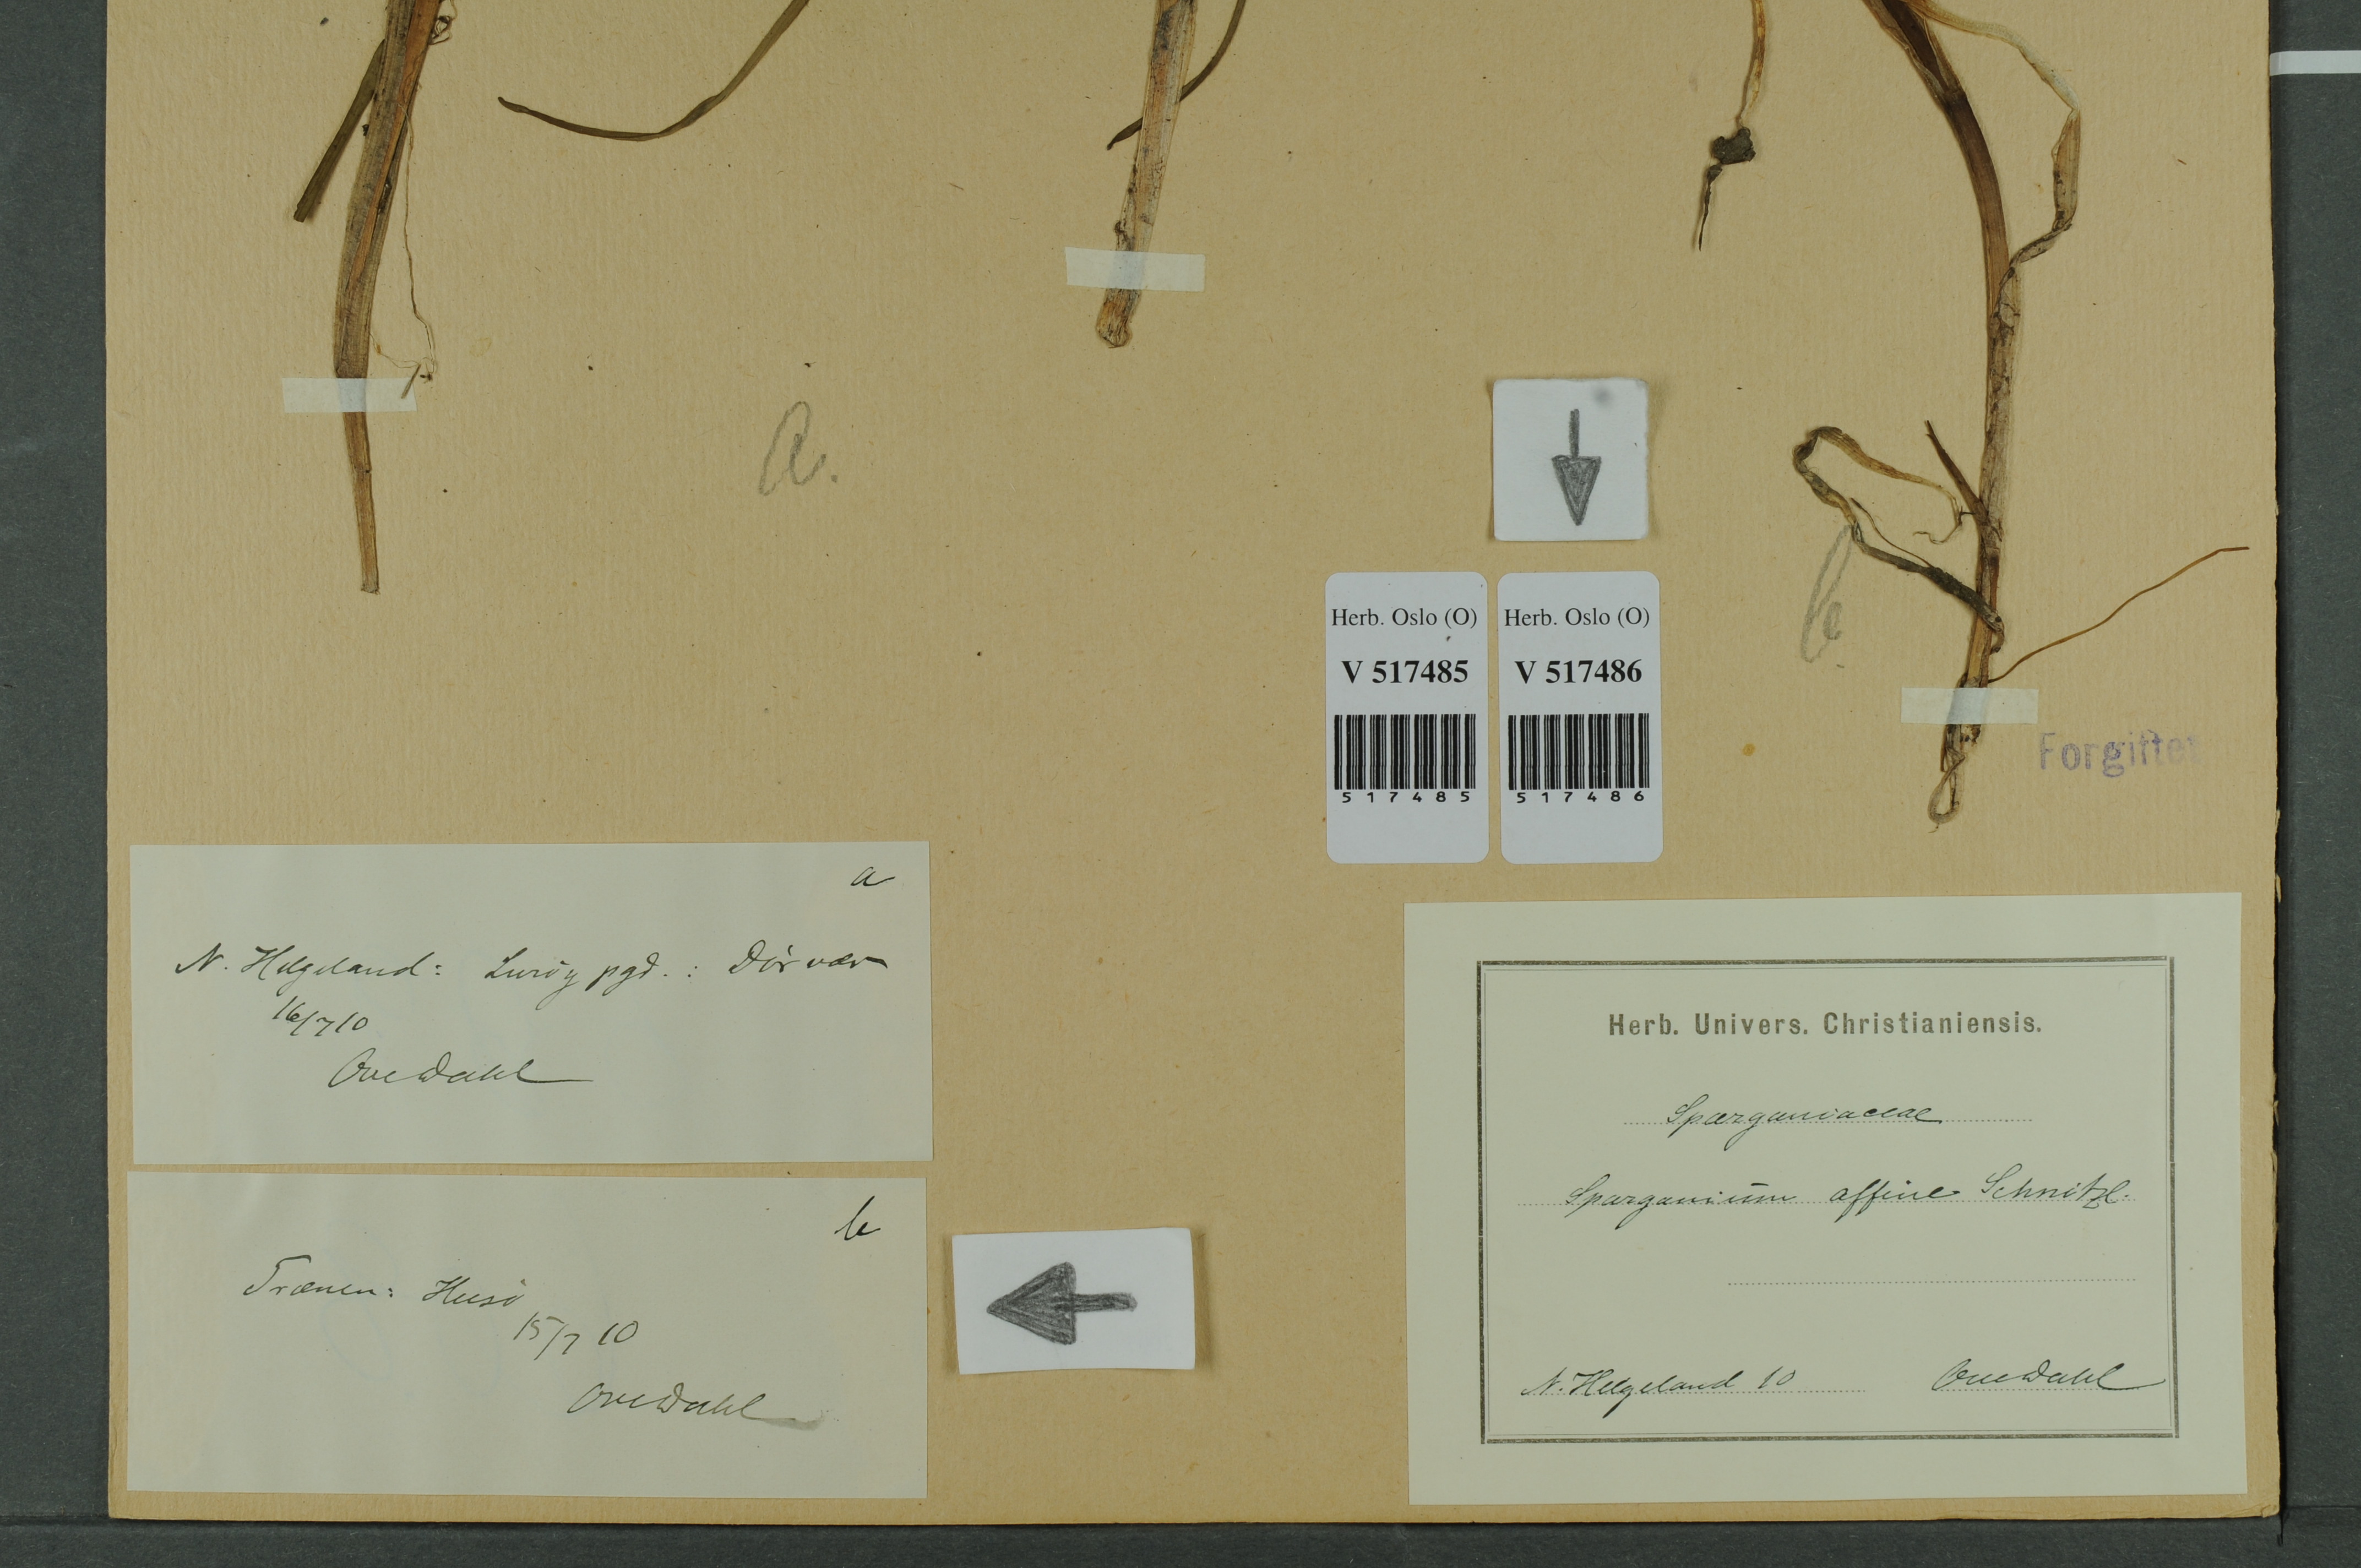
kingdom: Plantae
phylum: Tracheophyta
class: Liliopsida
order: Poales
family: Typhaceae
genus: Sparganium
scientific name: Sparganium angustifolium
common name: Floating bur-reed
